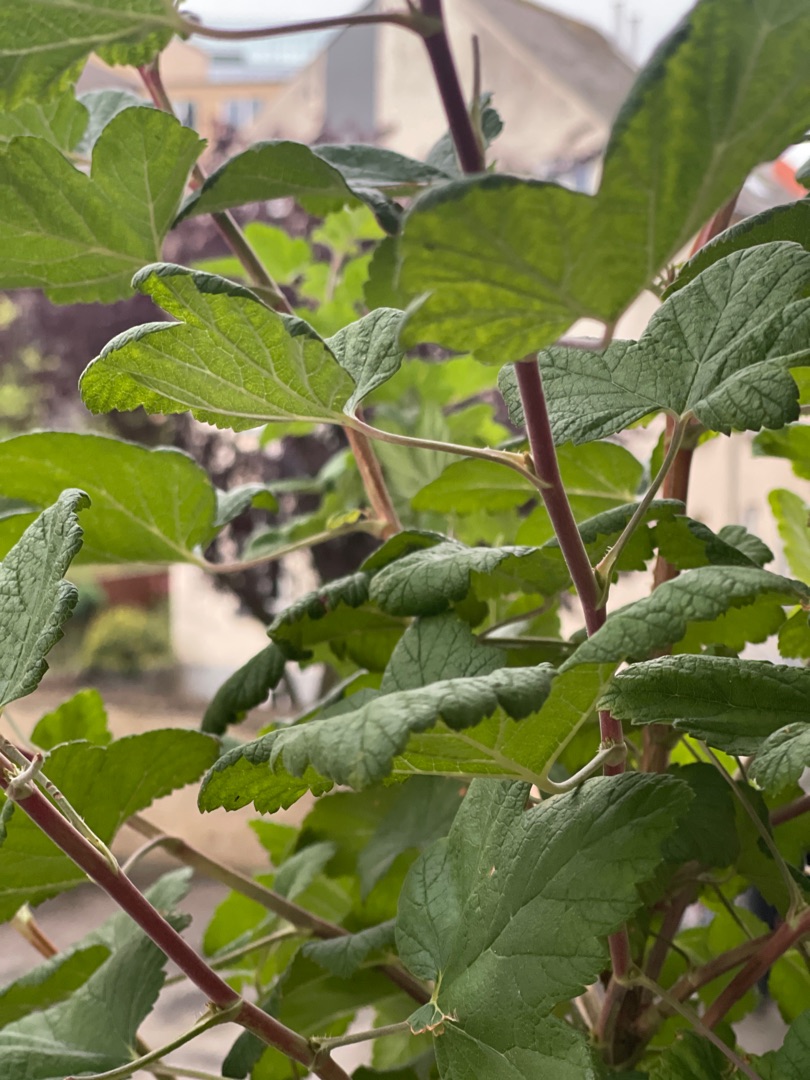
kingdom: Plantae
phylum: Tracheophyta
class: Magnoliopsida
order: Saxifragales
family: Grossulariaceae
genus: Ribes
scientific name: Ribes sanguineum
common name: Blod-ribs
